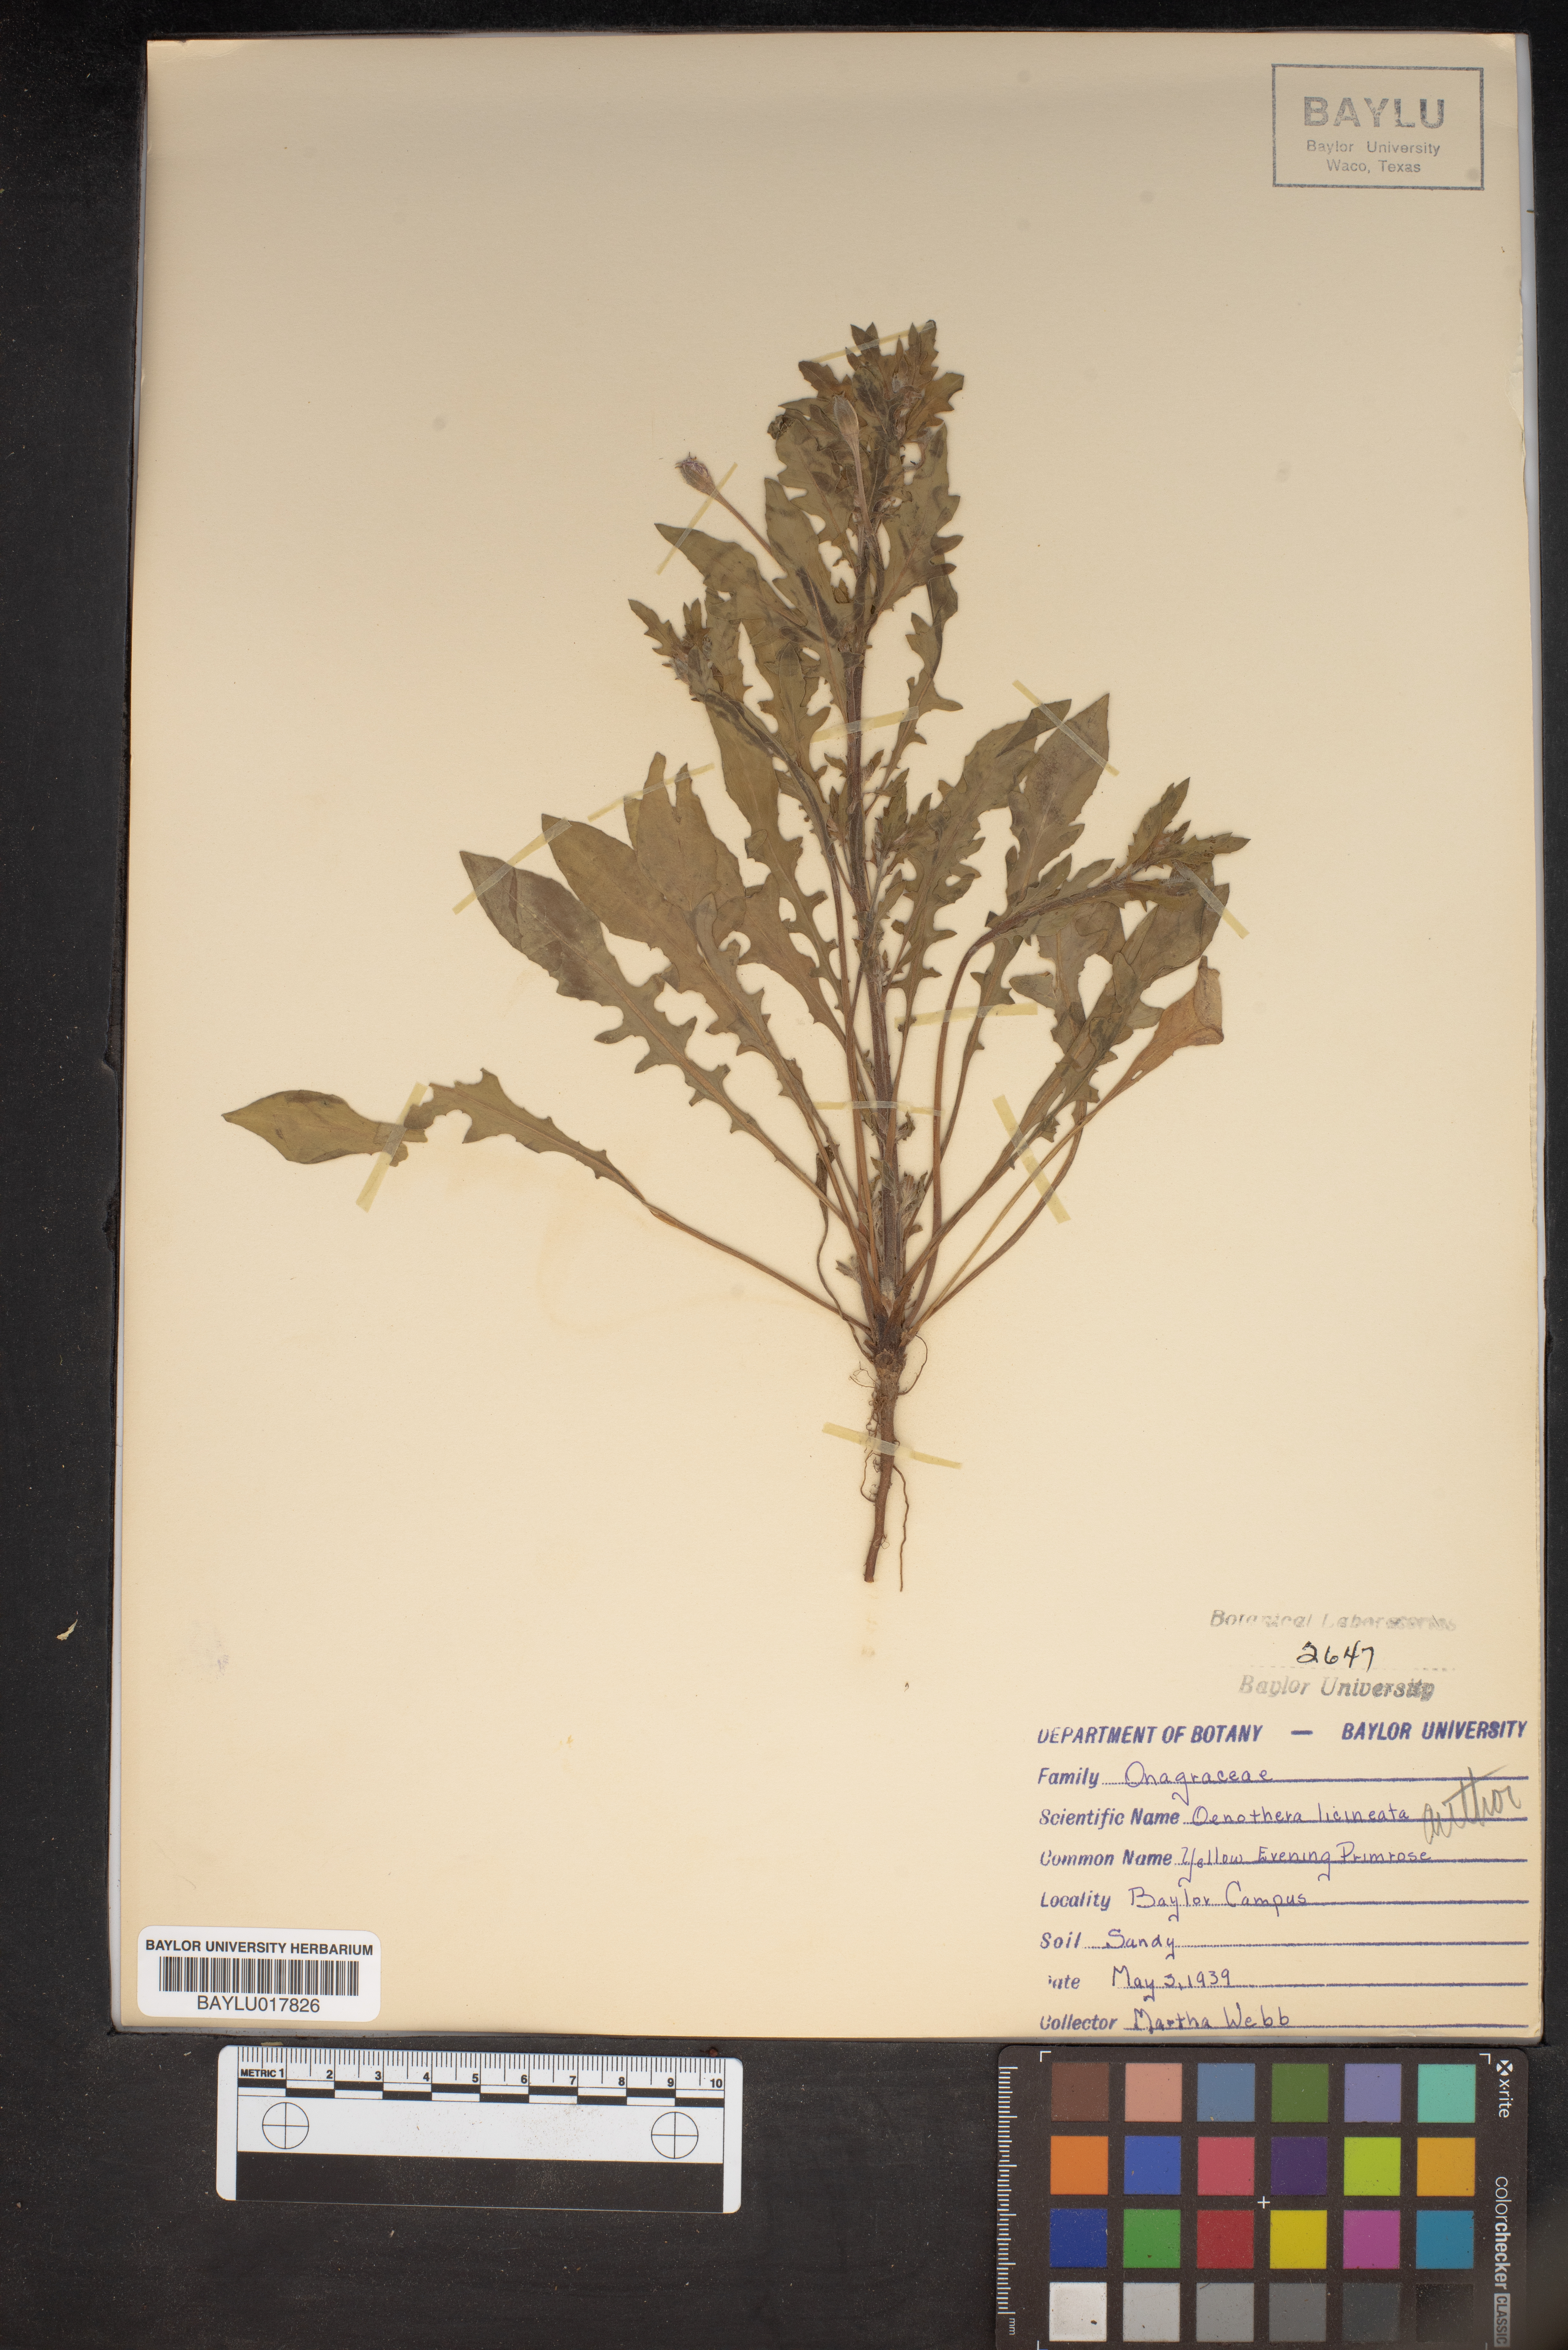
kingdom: Plantae
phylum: Tracheophyta
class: Magnoliopsida
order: Myrtales
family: Onagraceae
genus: Oenothera
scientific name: Oenothera laciniata
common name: Cut-leaved evening-primrose
